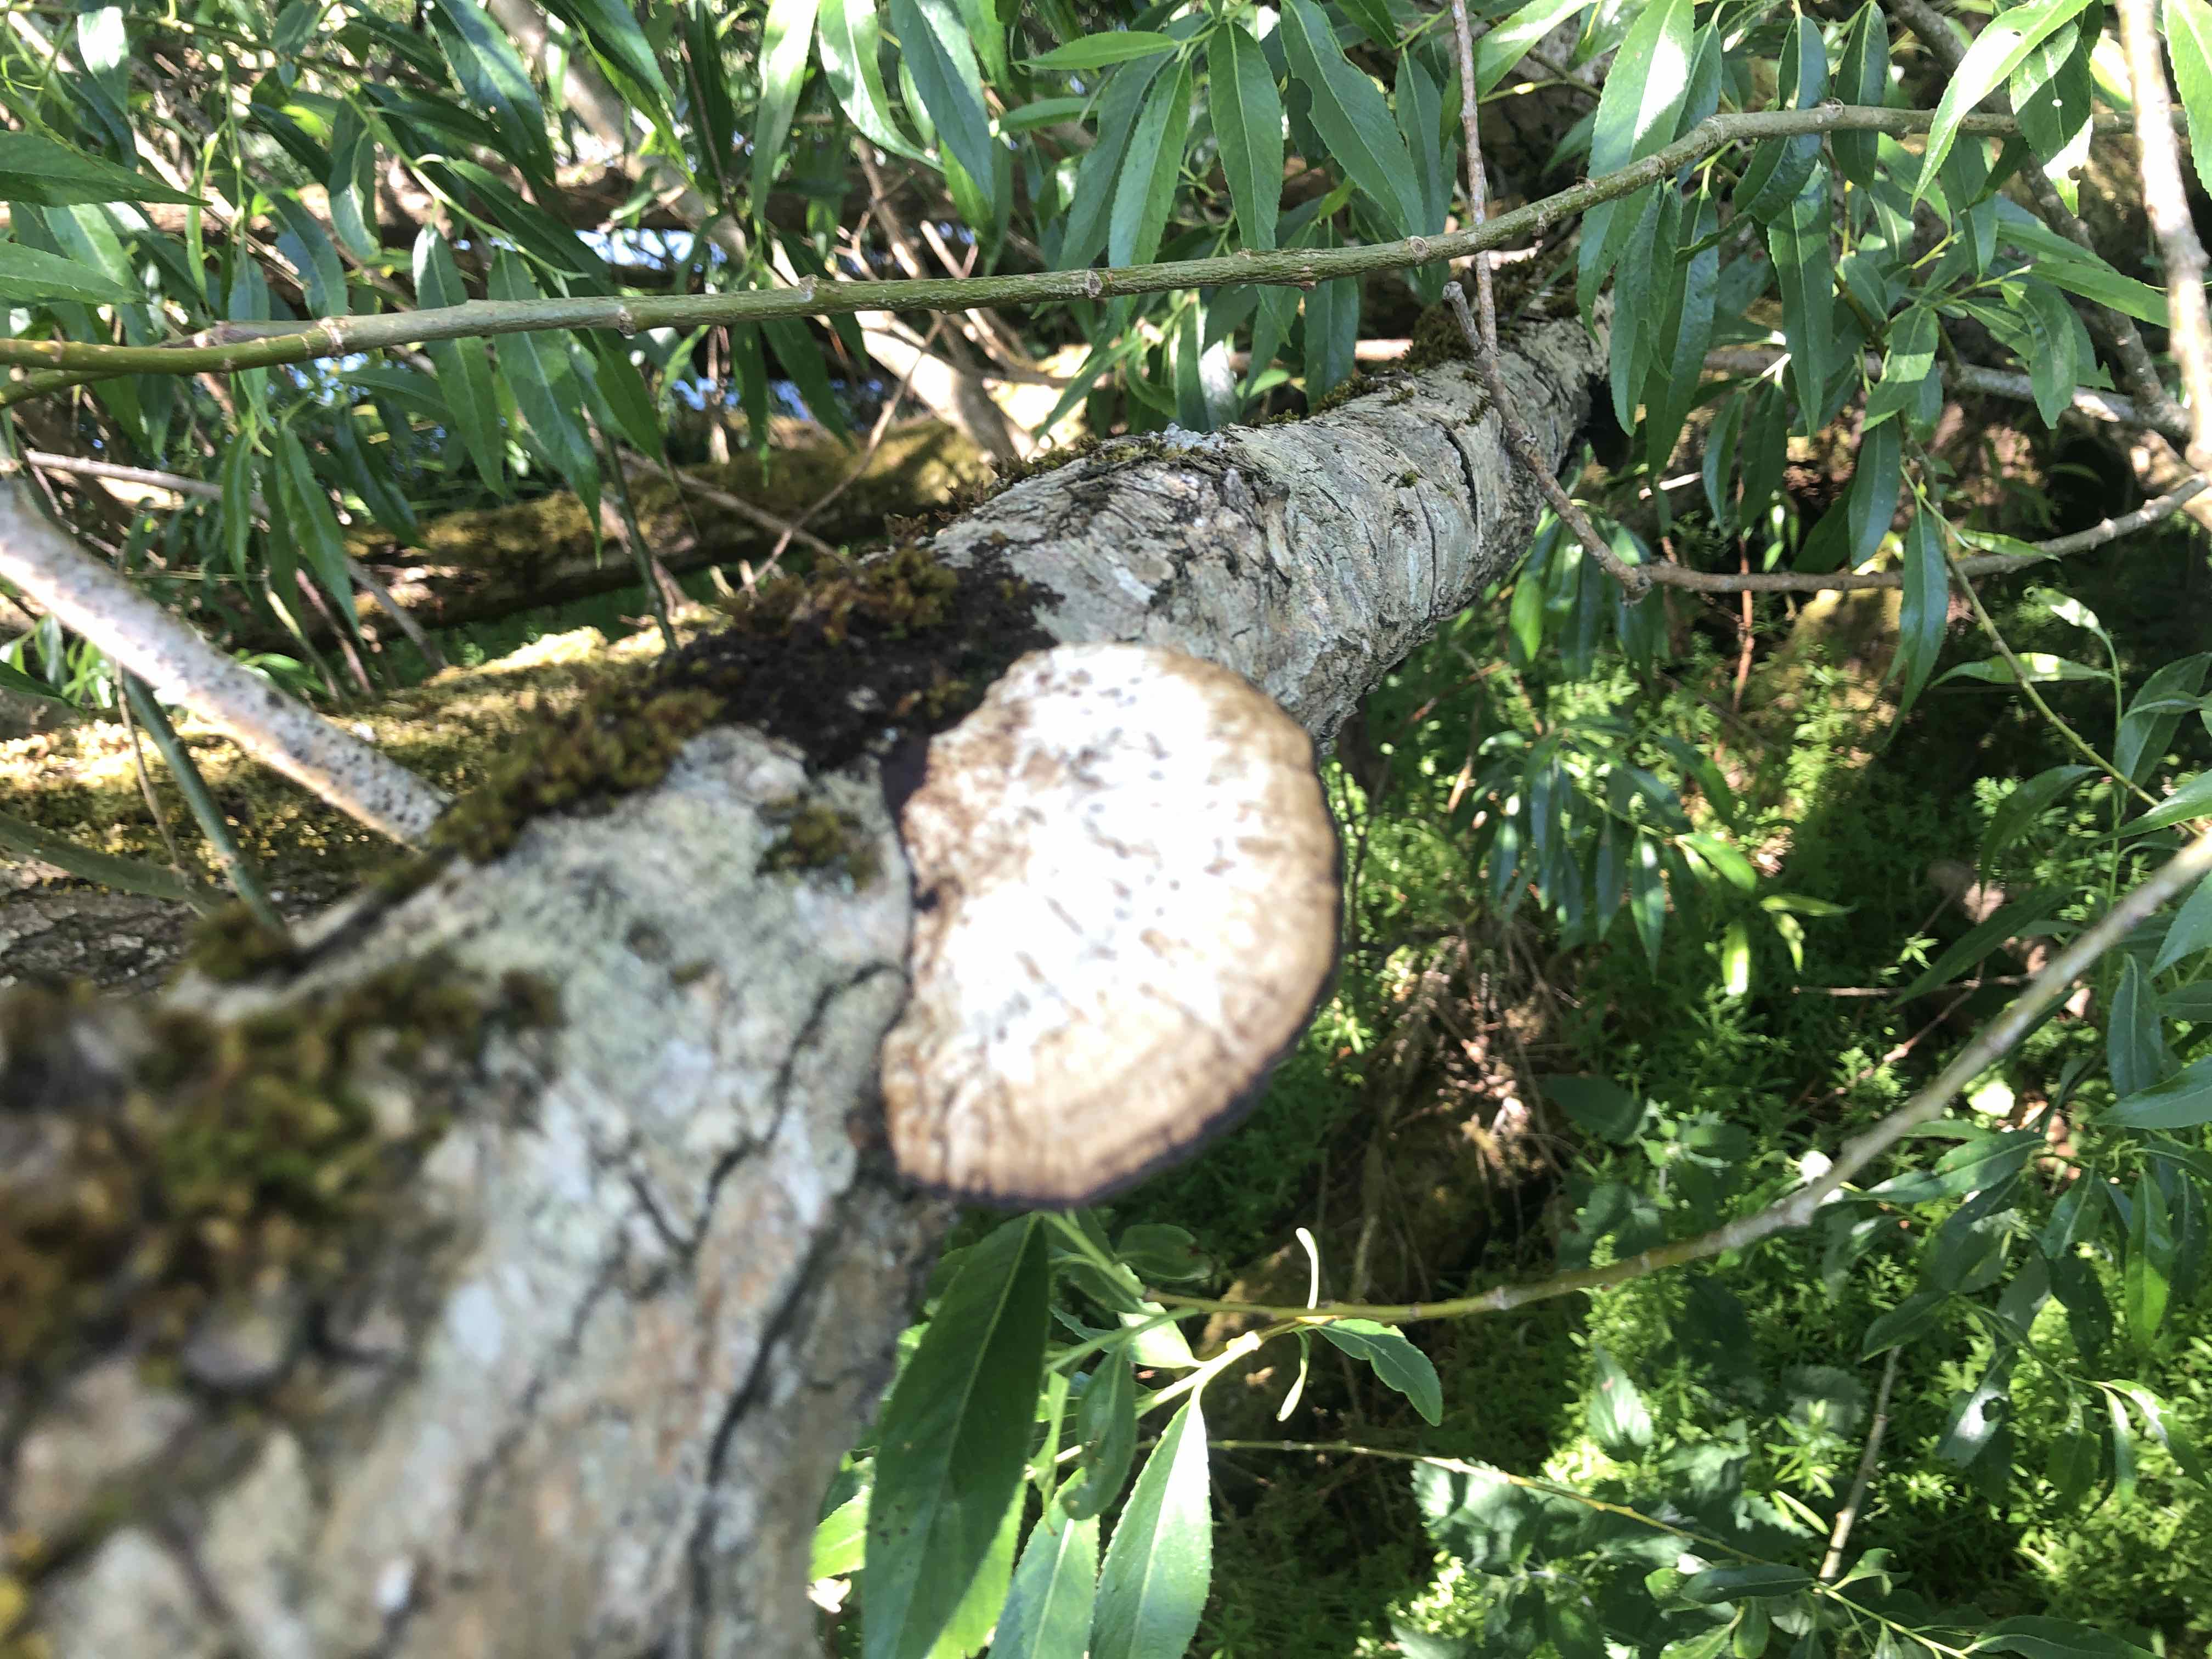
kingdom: Fungi
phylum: Basidiomycota
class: Agaricomycetes
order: Polyporales
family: Polyporaceae
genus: Daedaleopsis
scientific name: Daedaleopsis confragosa
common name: rødmende læderporesvamp
